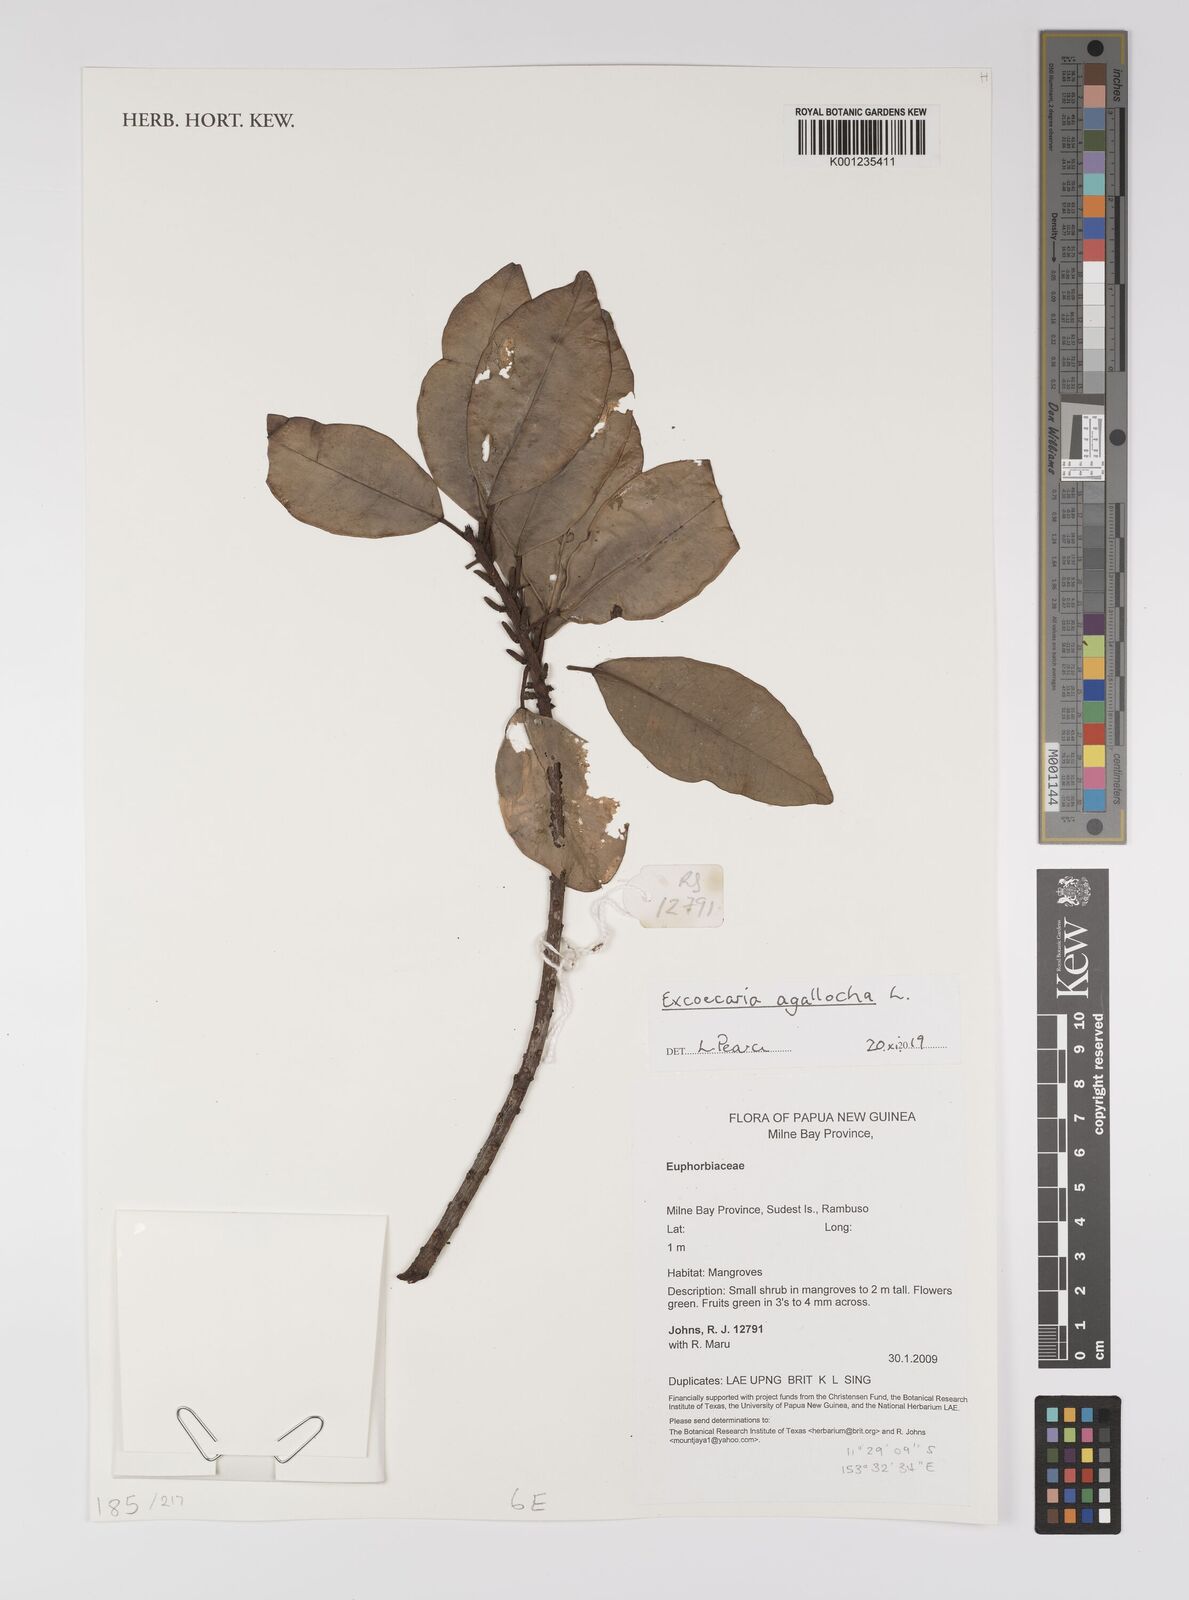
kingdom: Plantae
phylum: Tracheophyta
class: Magnoliopsida
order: Malpighiales
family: Euphorbiaceae
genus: Excoecaria
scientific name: Excoecaria agallocha
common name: River poisontree
